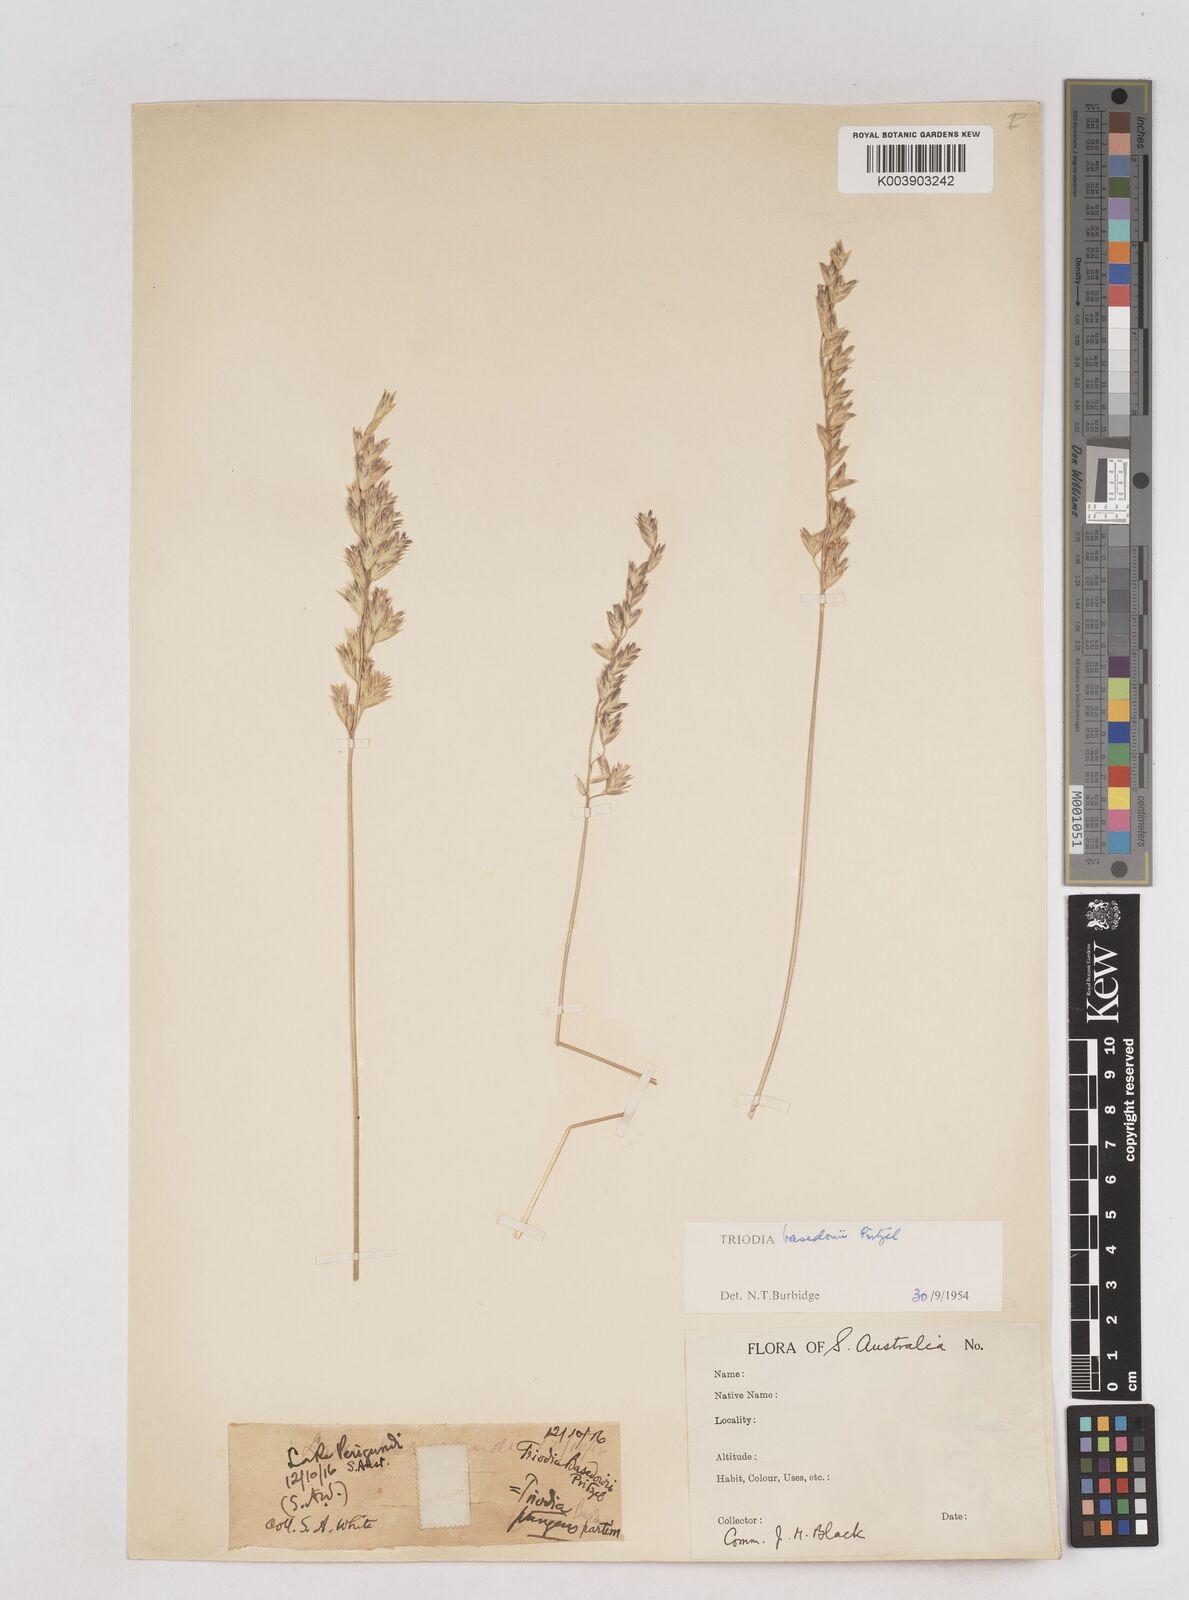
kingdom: Plantae
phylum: Tracheophyta
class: Liliopsida
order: Poales
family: Poaceae
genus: Triodia
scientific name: Triodia basedowii
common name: Hard spinifex
